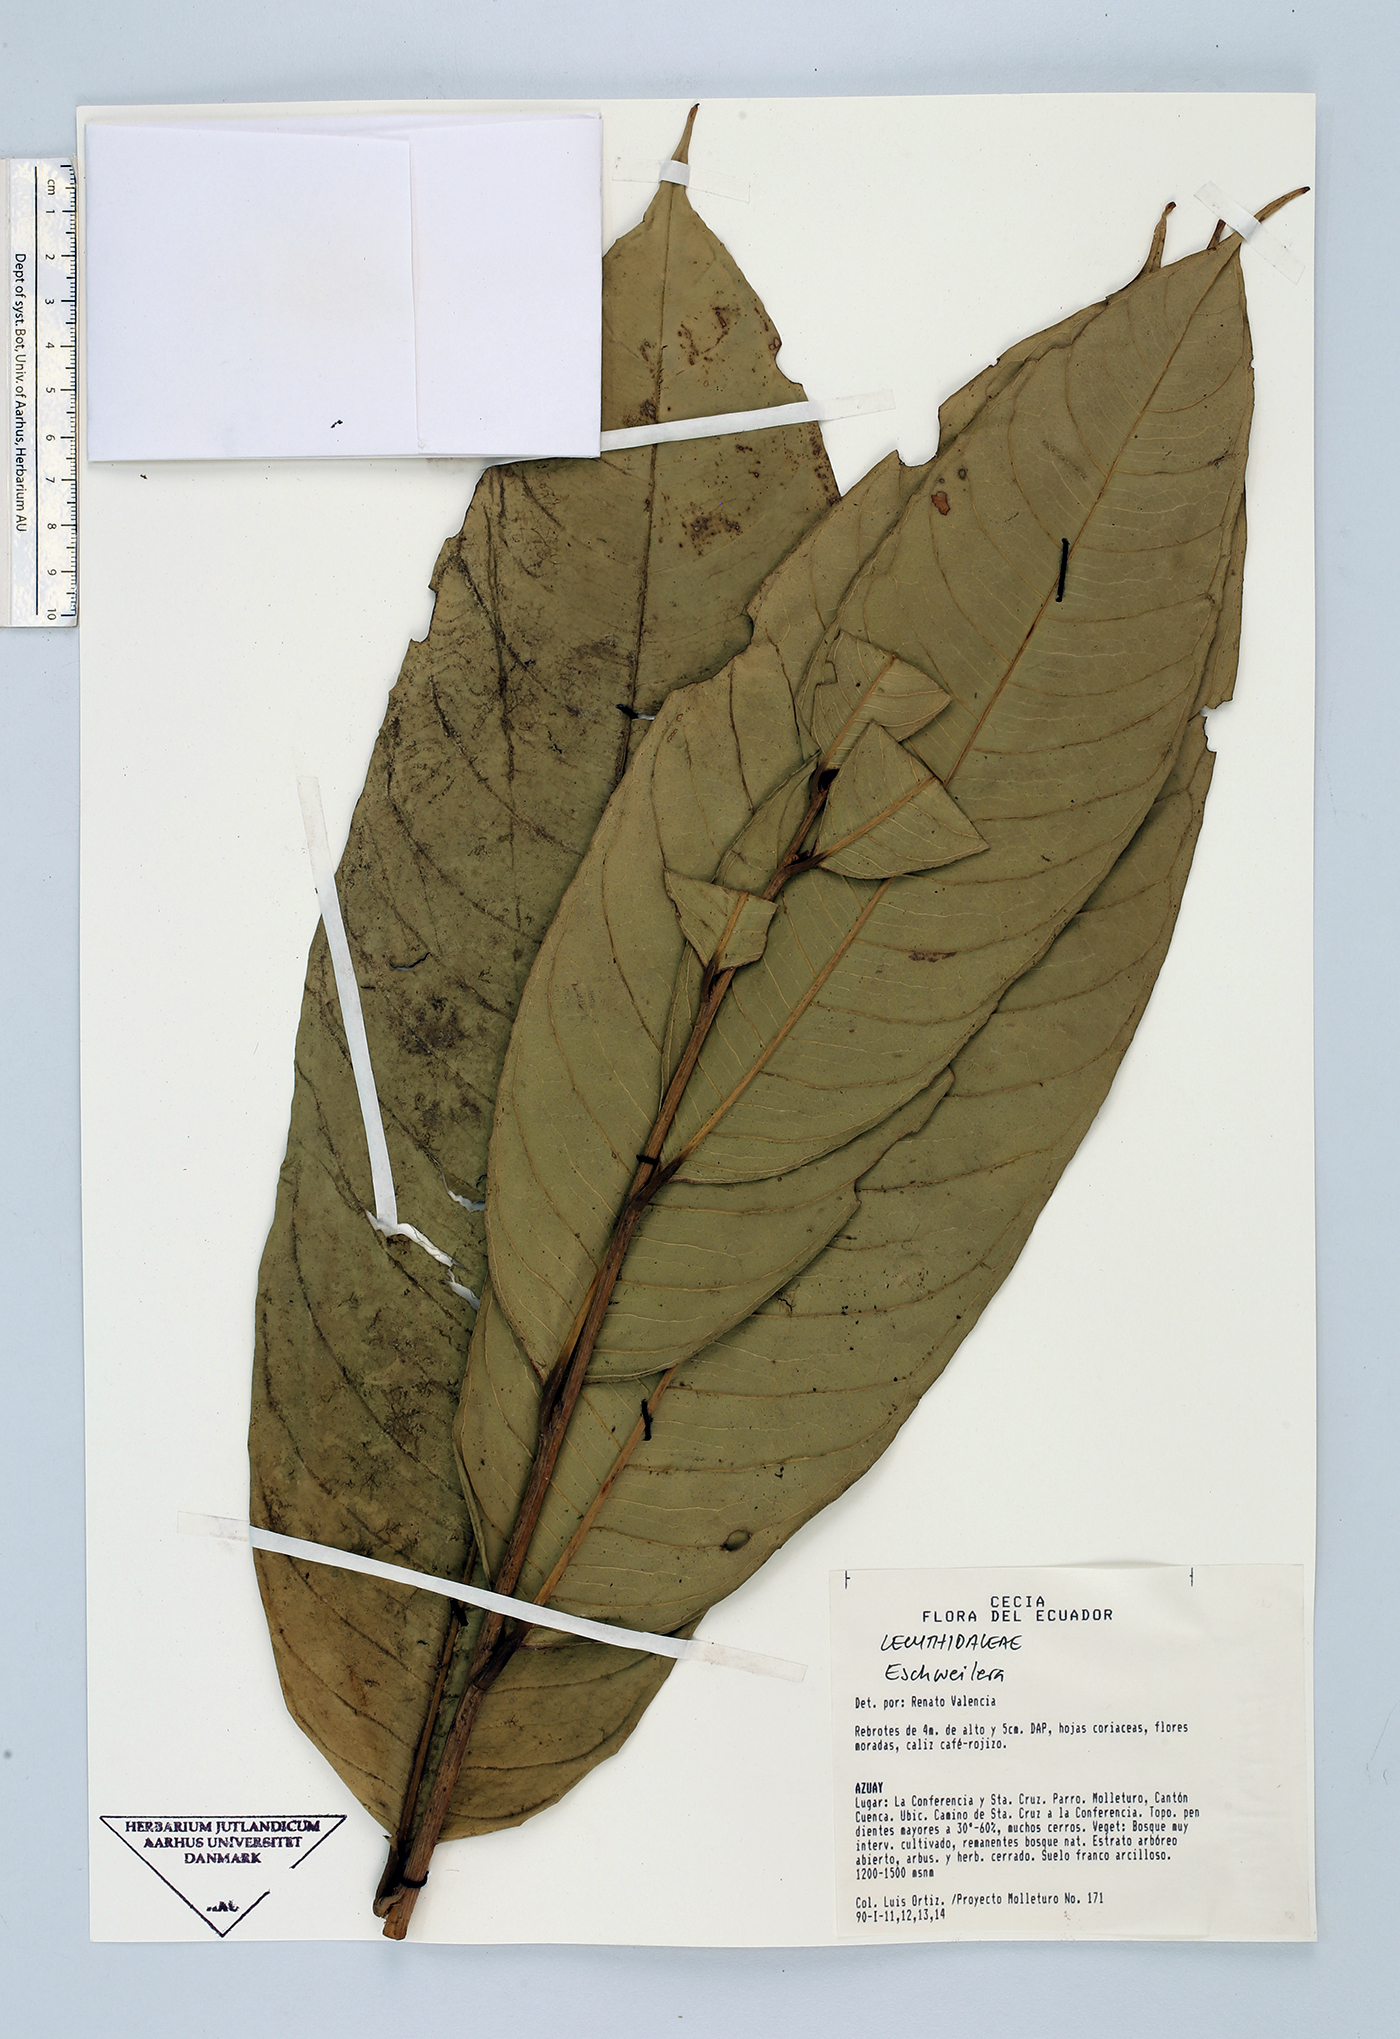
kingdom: Plantae
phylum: Tracheophyta
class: Magnoliopsida
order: Ericales
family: Lecythidaceae
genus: Eschweilera
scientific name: Eschweilera
